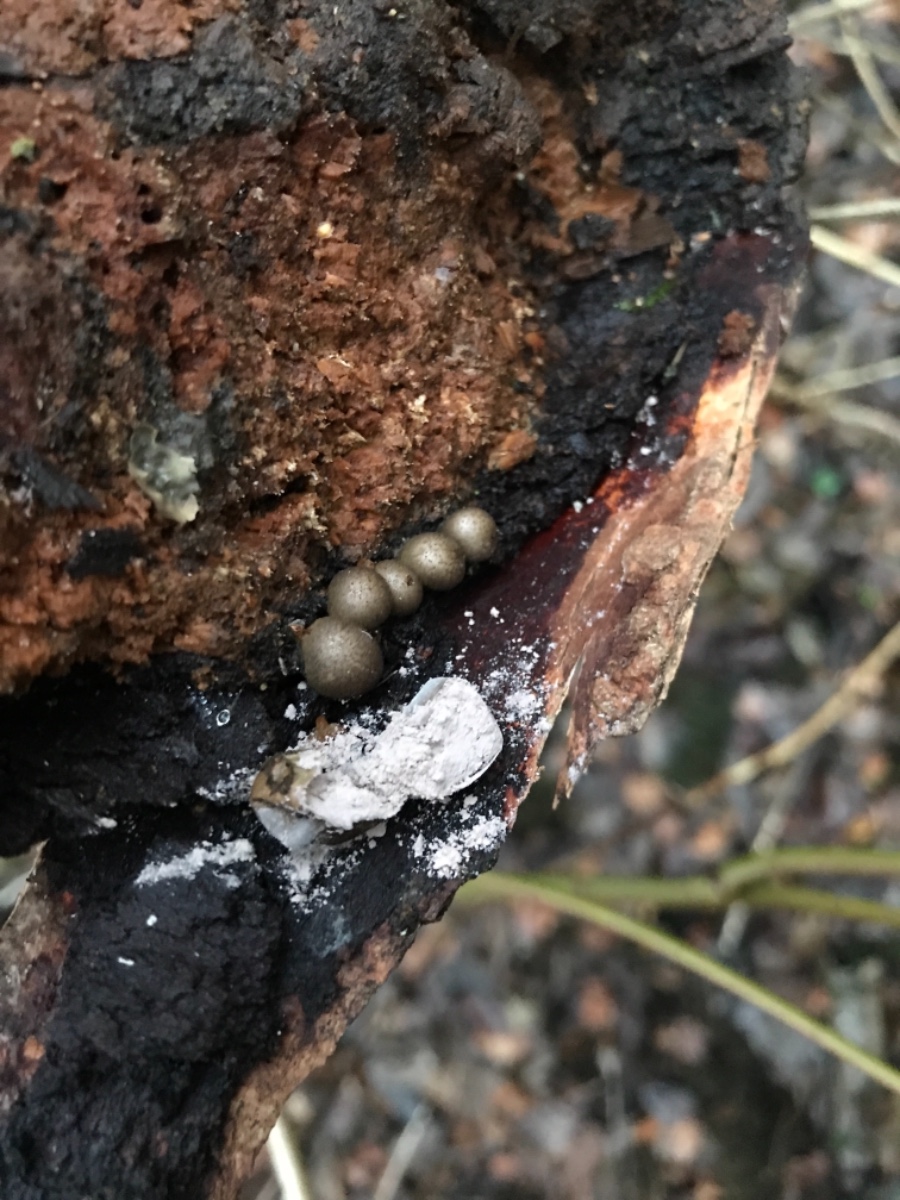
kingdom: Protozoa
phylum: Mycetozoa
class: Myxomycetes
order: Cribrariales
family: Tubiferaceae
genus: Lycogala
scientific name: Lycogala epidendrum
